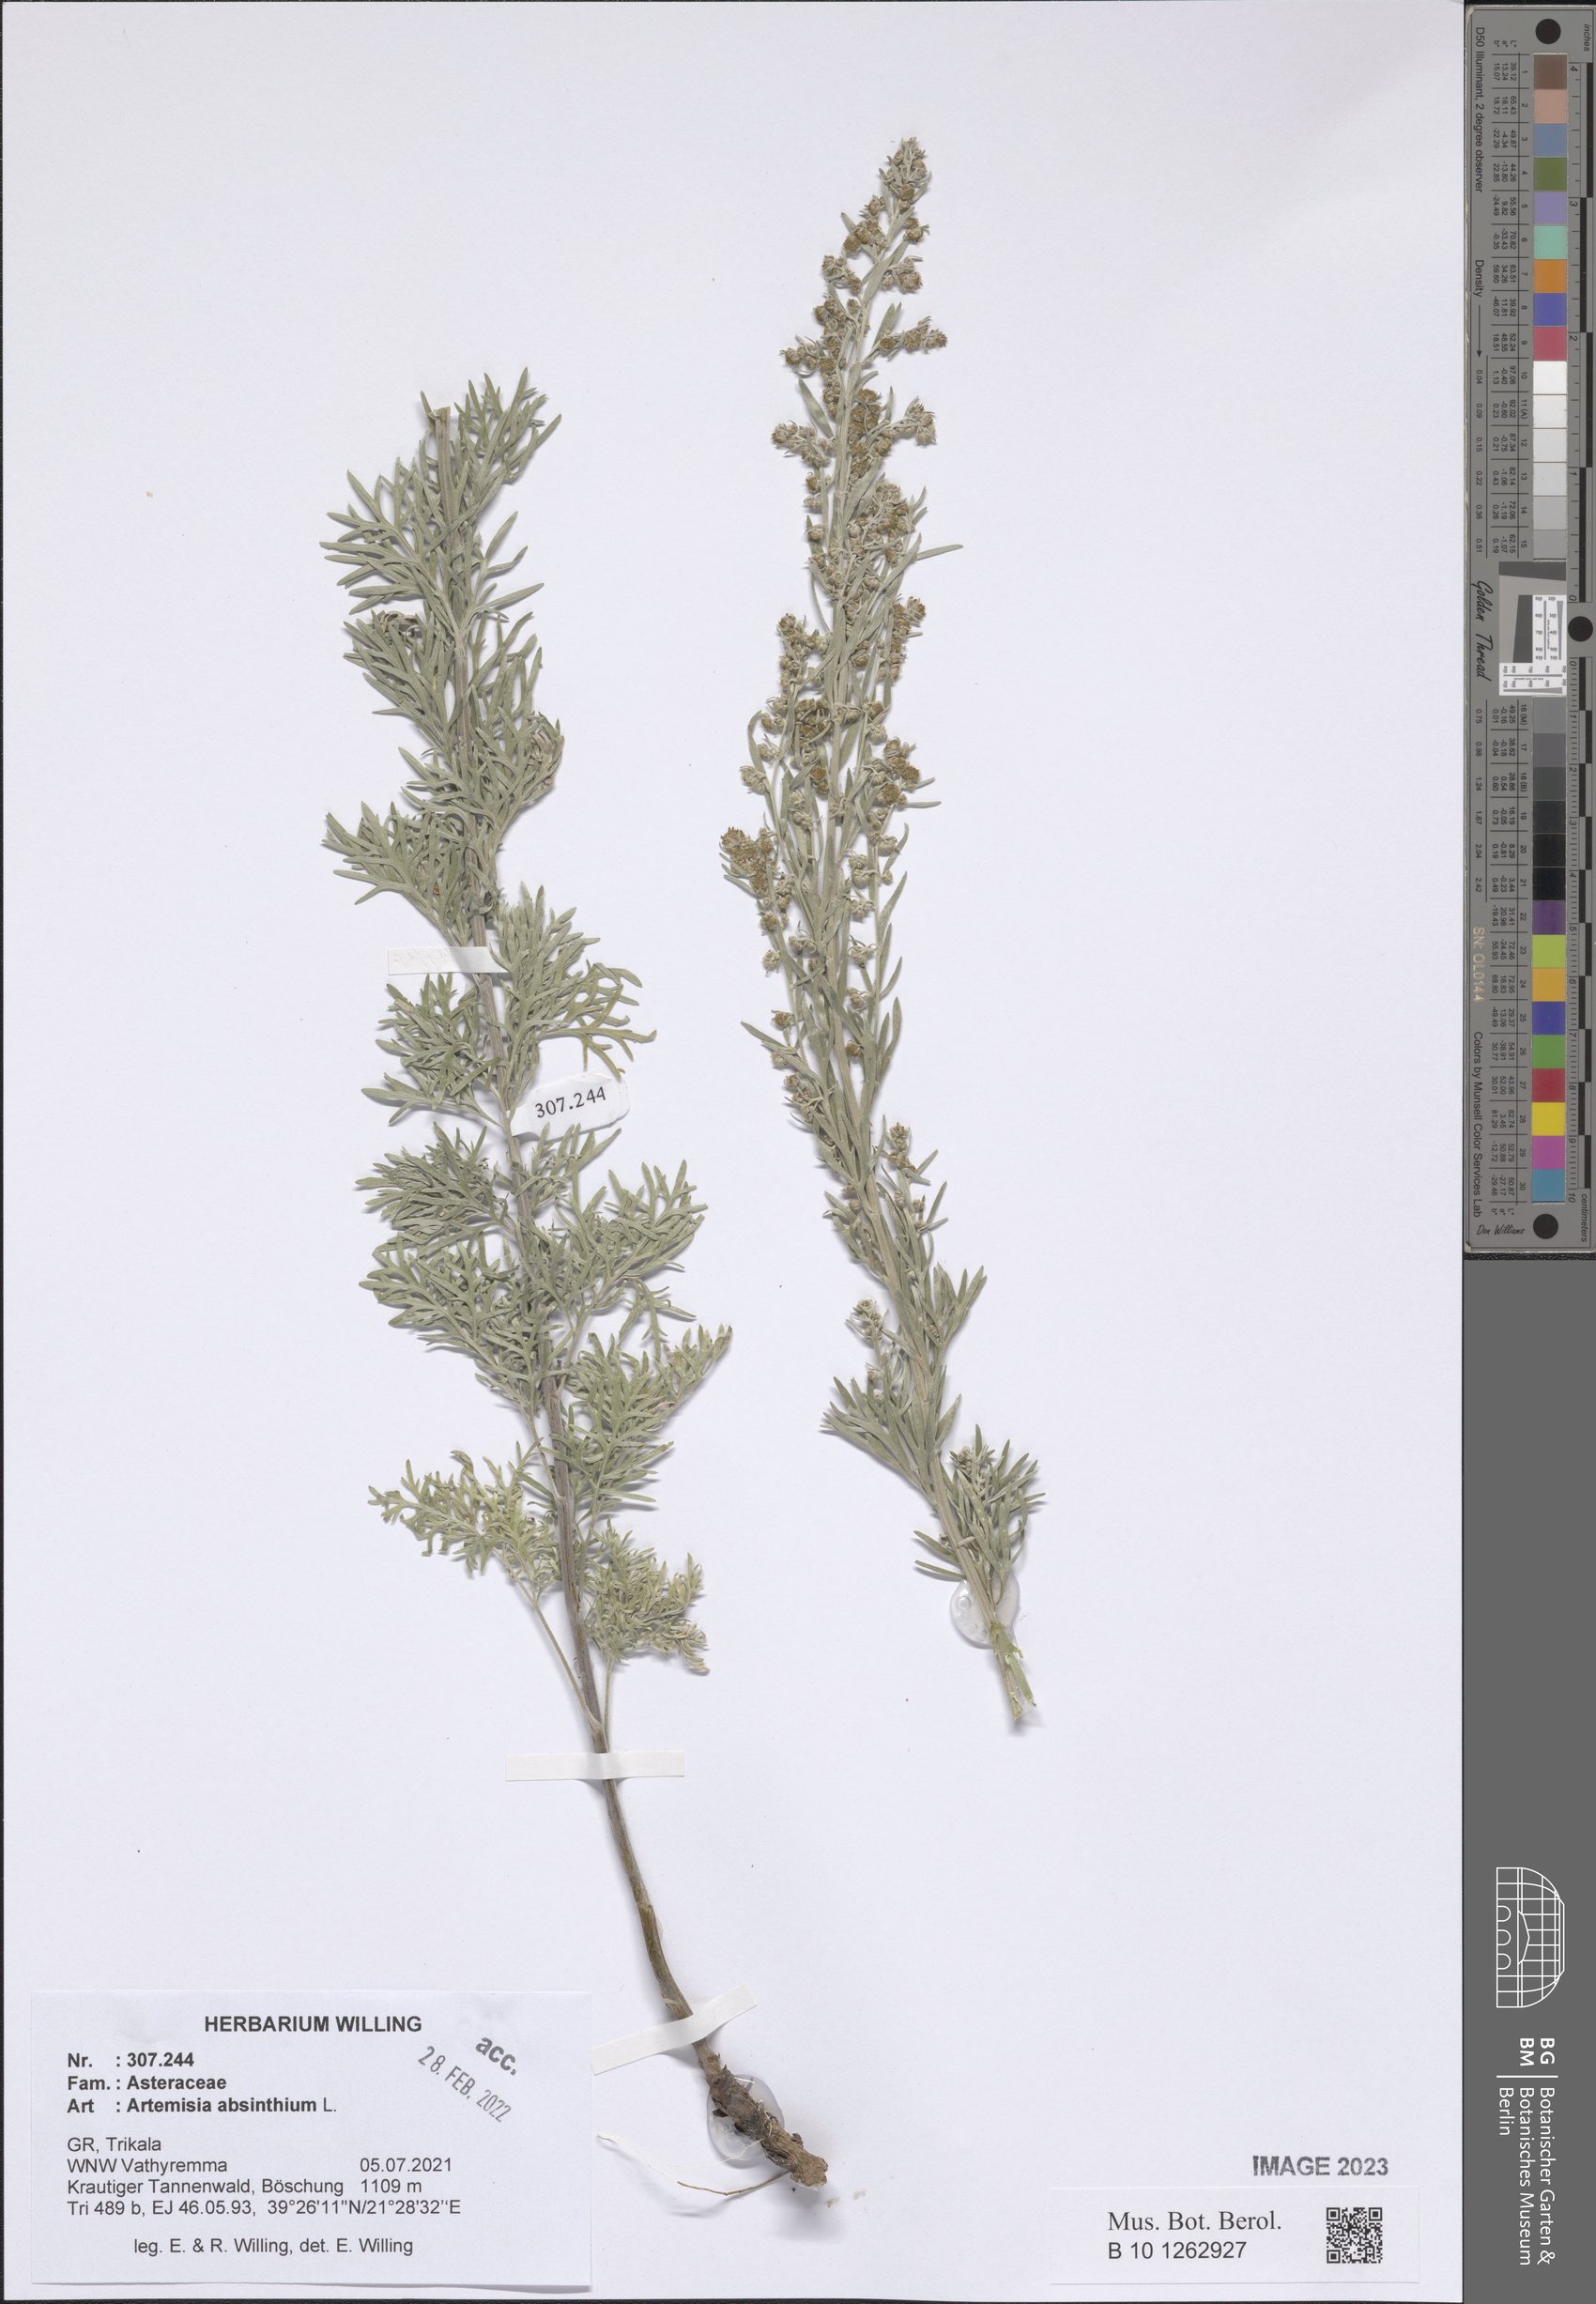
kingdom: Plantae
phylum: Tracheophyta
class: Magnoliopsida
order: Asterales
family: Asteraceae
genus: Artemisia
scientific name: Artemisia absinthium
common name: Wormwood
